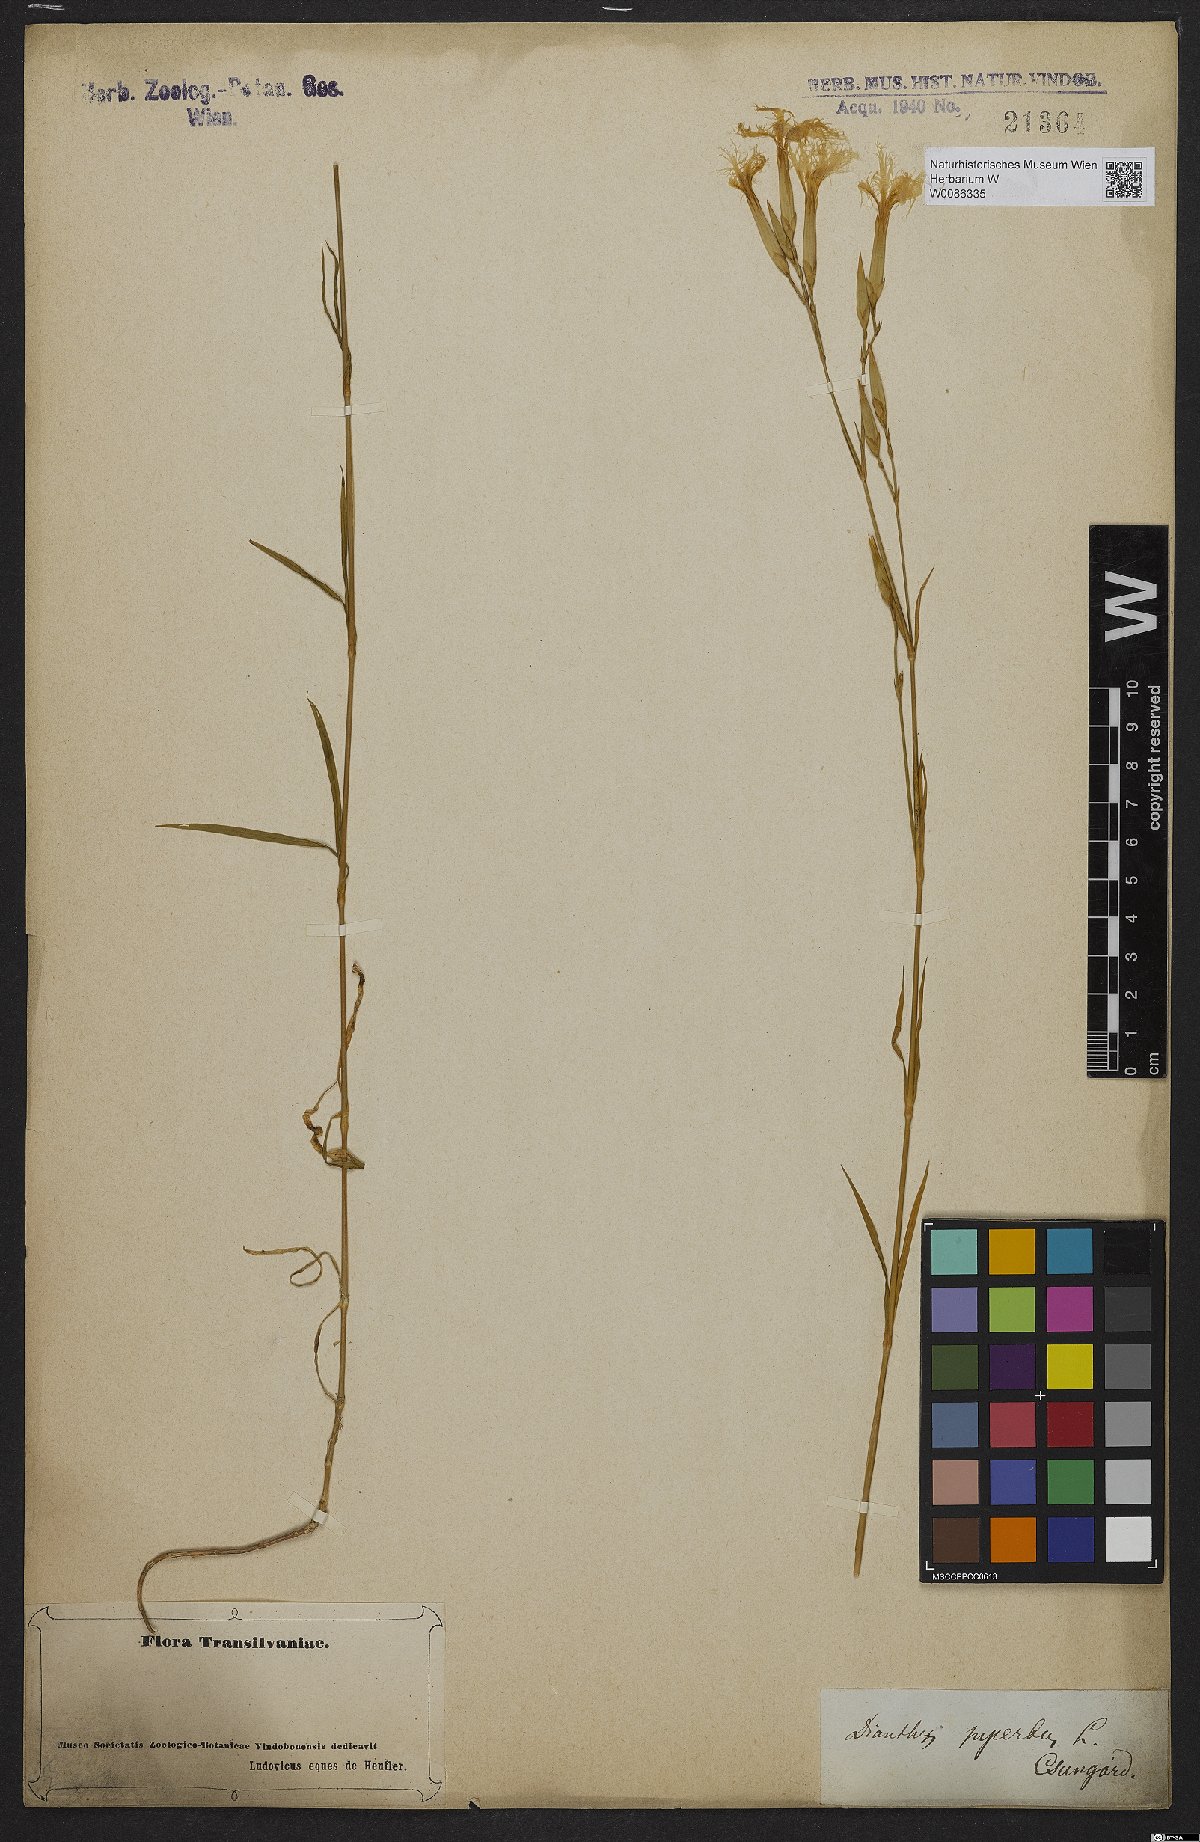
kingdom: Plantae
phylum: Tracheophyta
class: Magnoliopsida
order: Caryophyllales
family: Caryophyllaceae
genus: Dianthus
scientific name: Dianthus superbus
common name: Fringed pink
